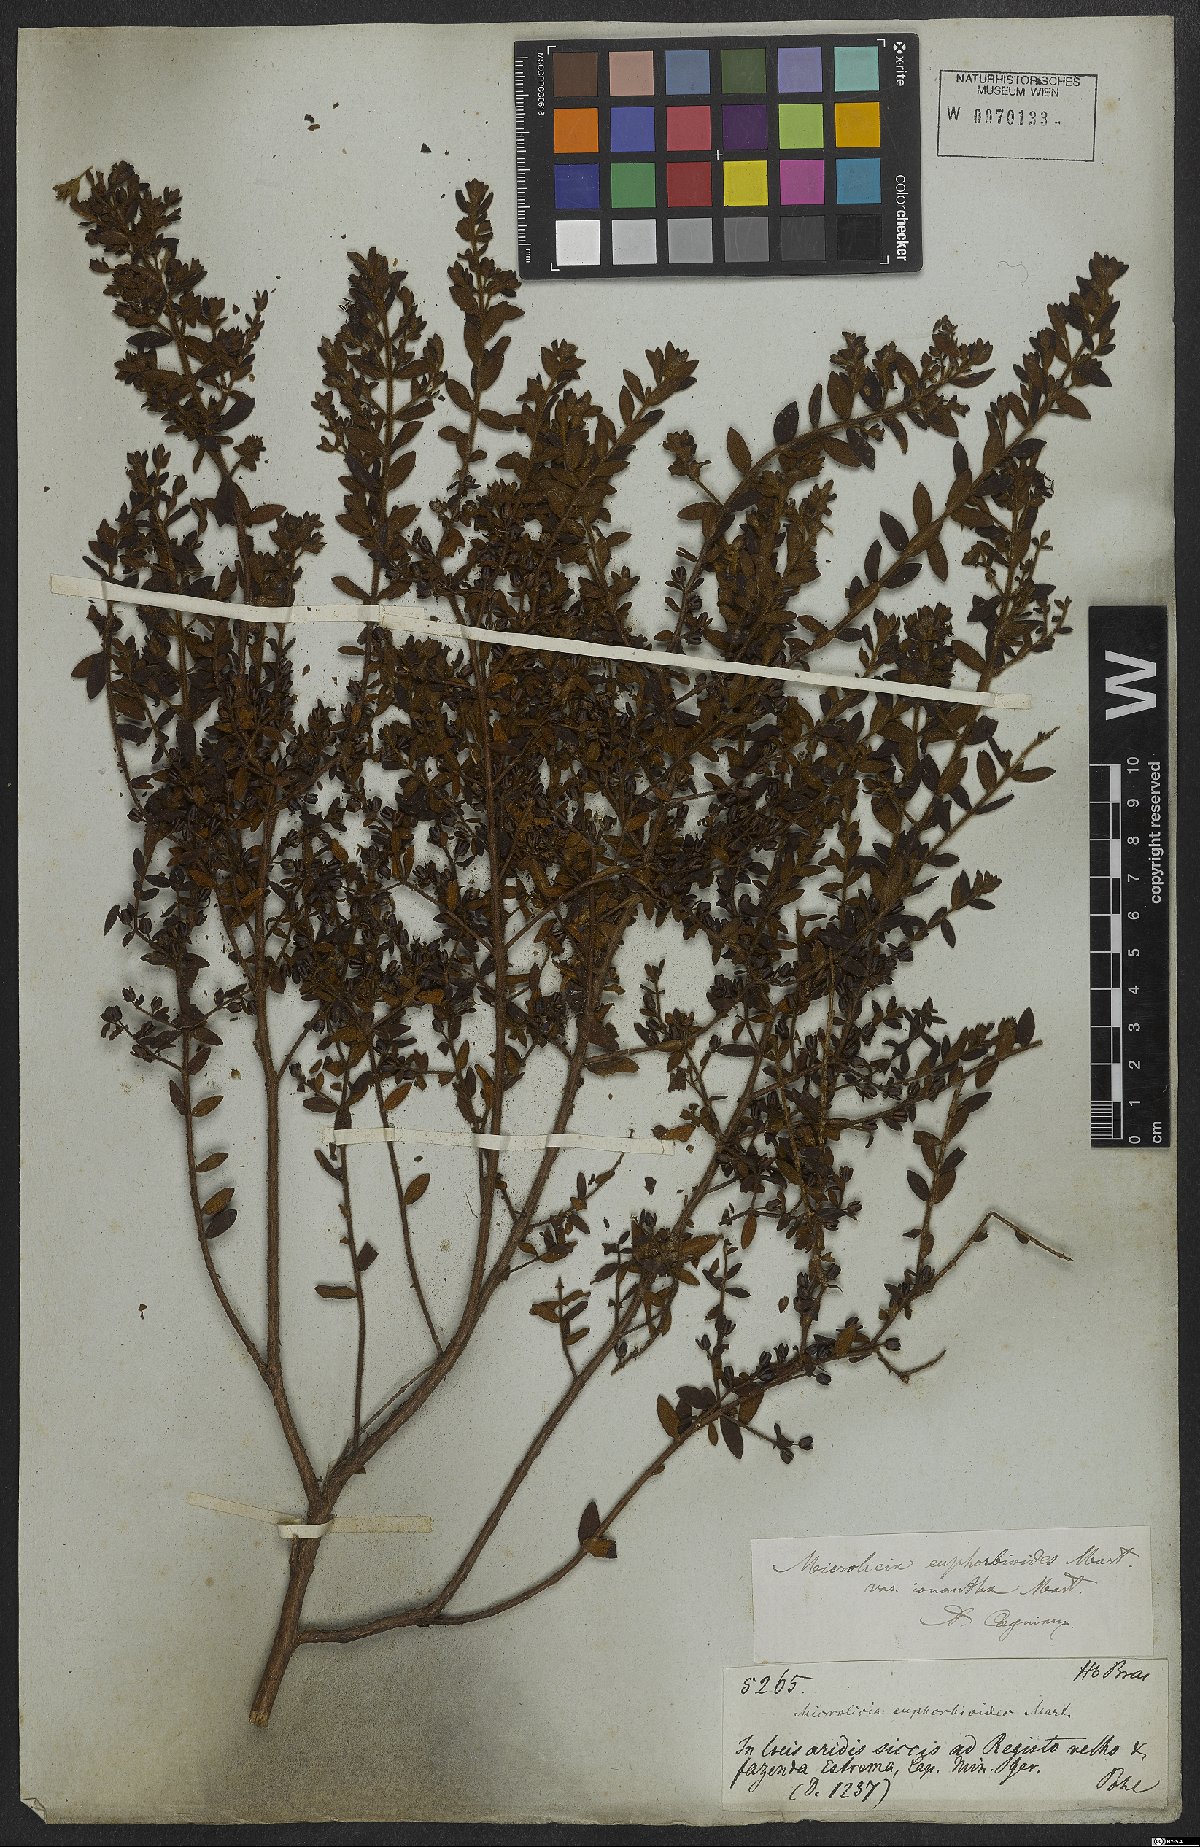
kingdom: Plantae
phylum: Tracheophyta
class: Magnoliopsida
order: Myrtales
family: Melastomataceae
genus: Microlicia
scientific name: Microlicia euphorbioides
